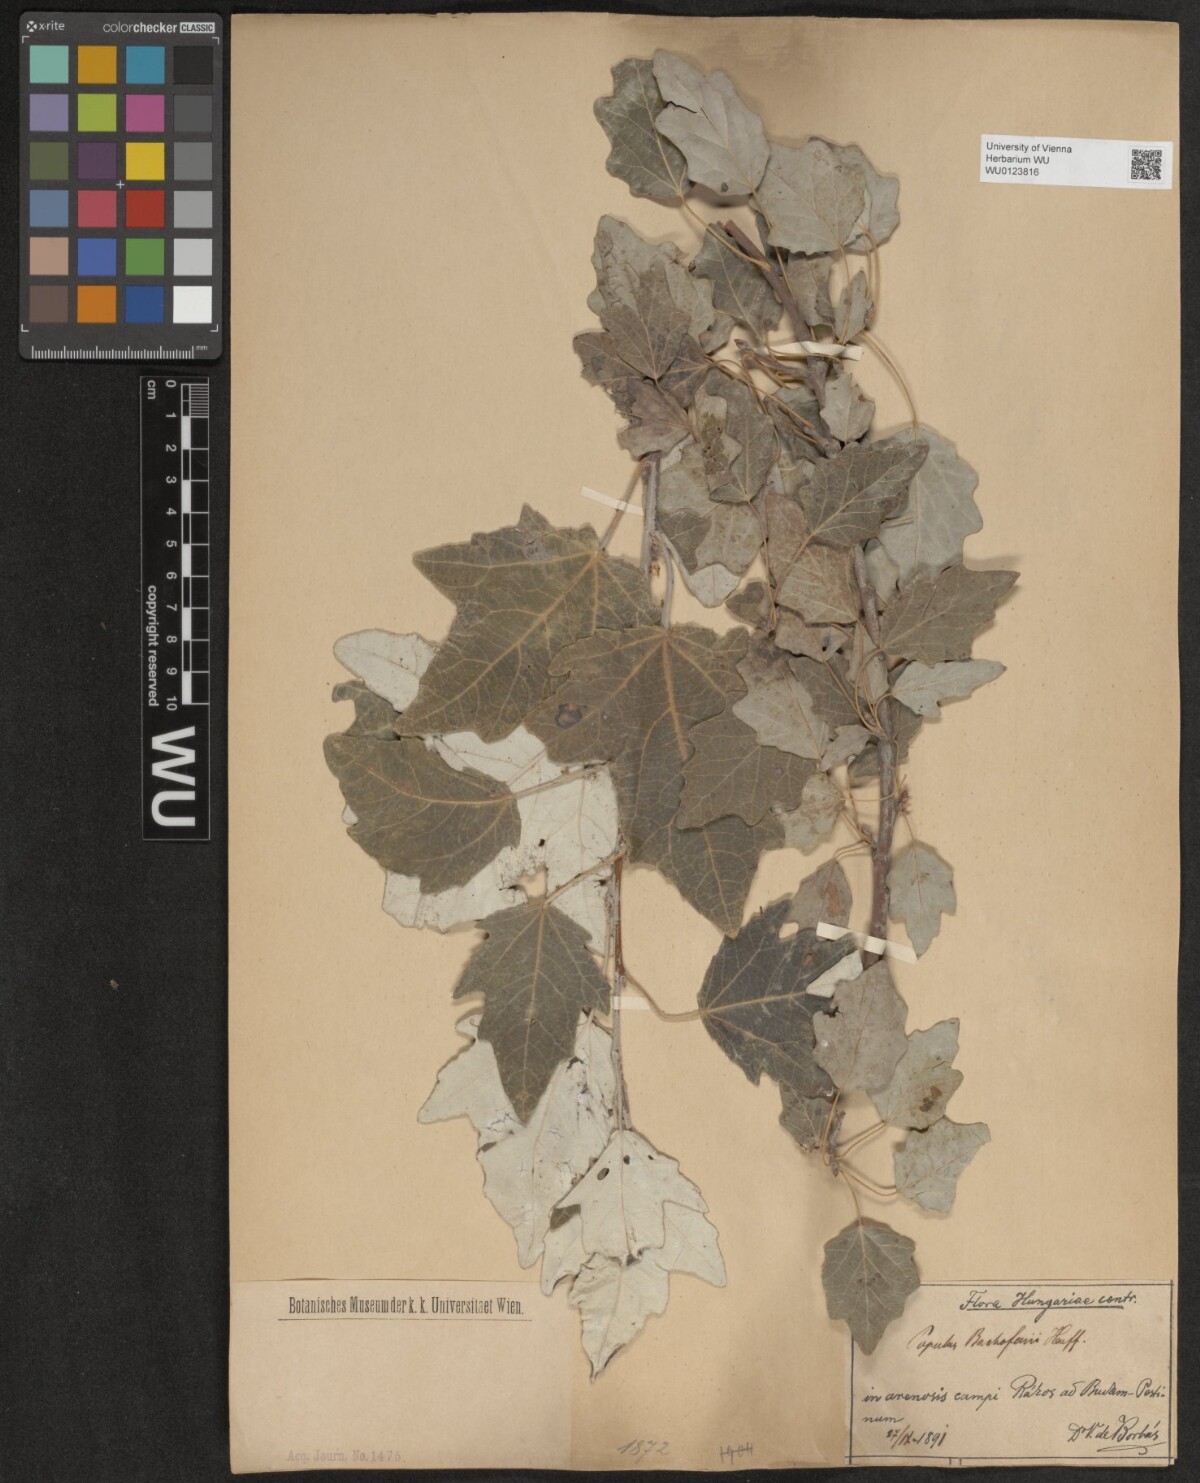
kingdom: Plantae
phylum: Tracheophyta
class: Magnoliopsida
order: Malpighiales
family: Salicaceae
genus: Populus
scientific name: Populus alba
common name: White poplar
